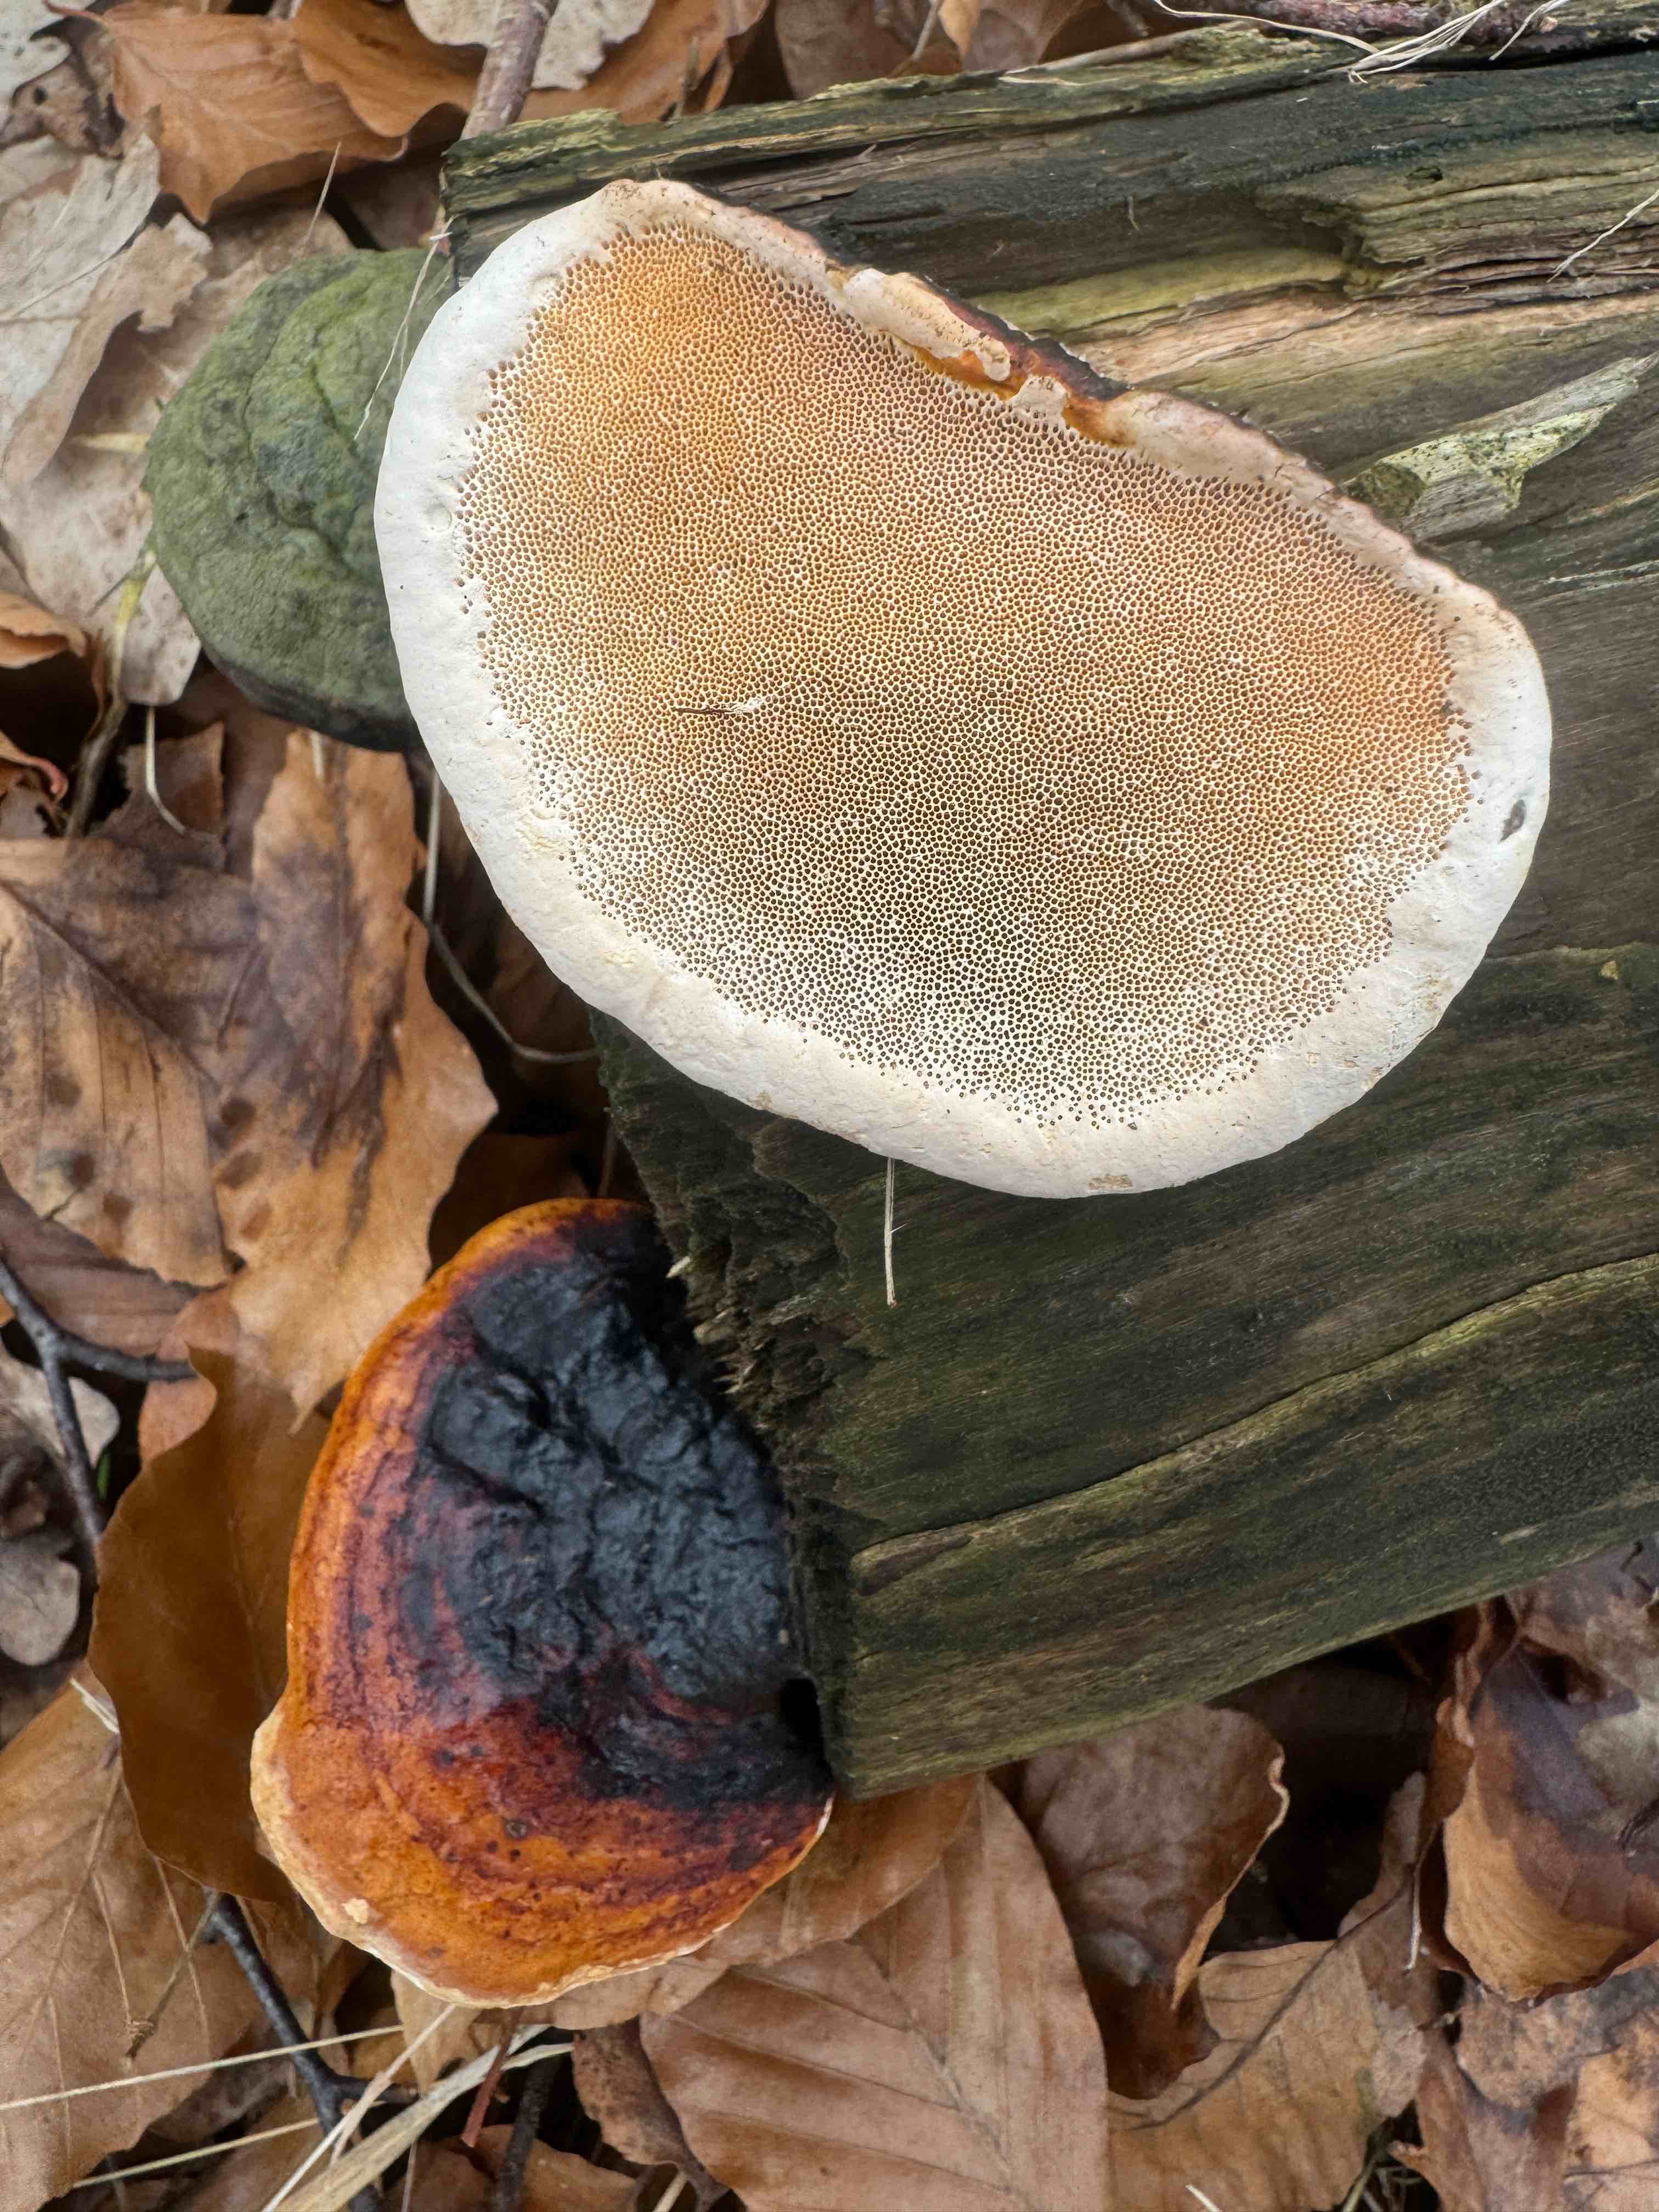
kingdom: Fungi
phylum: Basidiomycota
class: Agaricomycetes
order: Polyporales
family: Fomitopsidaceae
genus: Fomitopsis
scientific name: Fomitopsis pinicola
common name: randbæltet hovporesvamp
